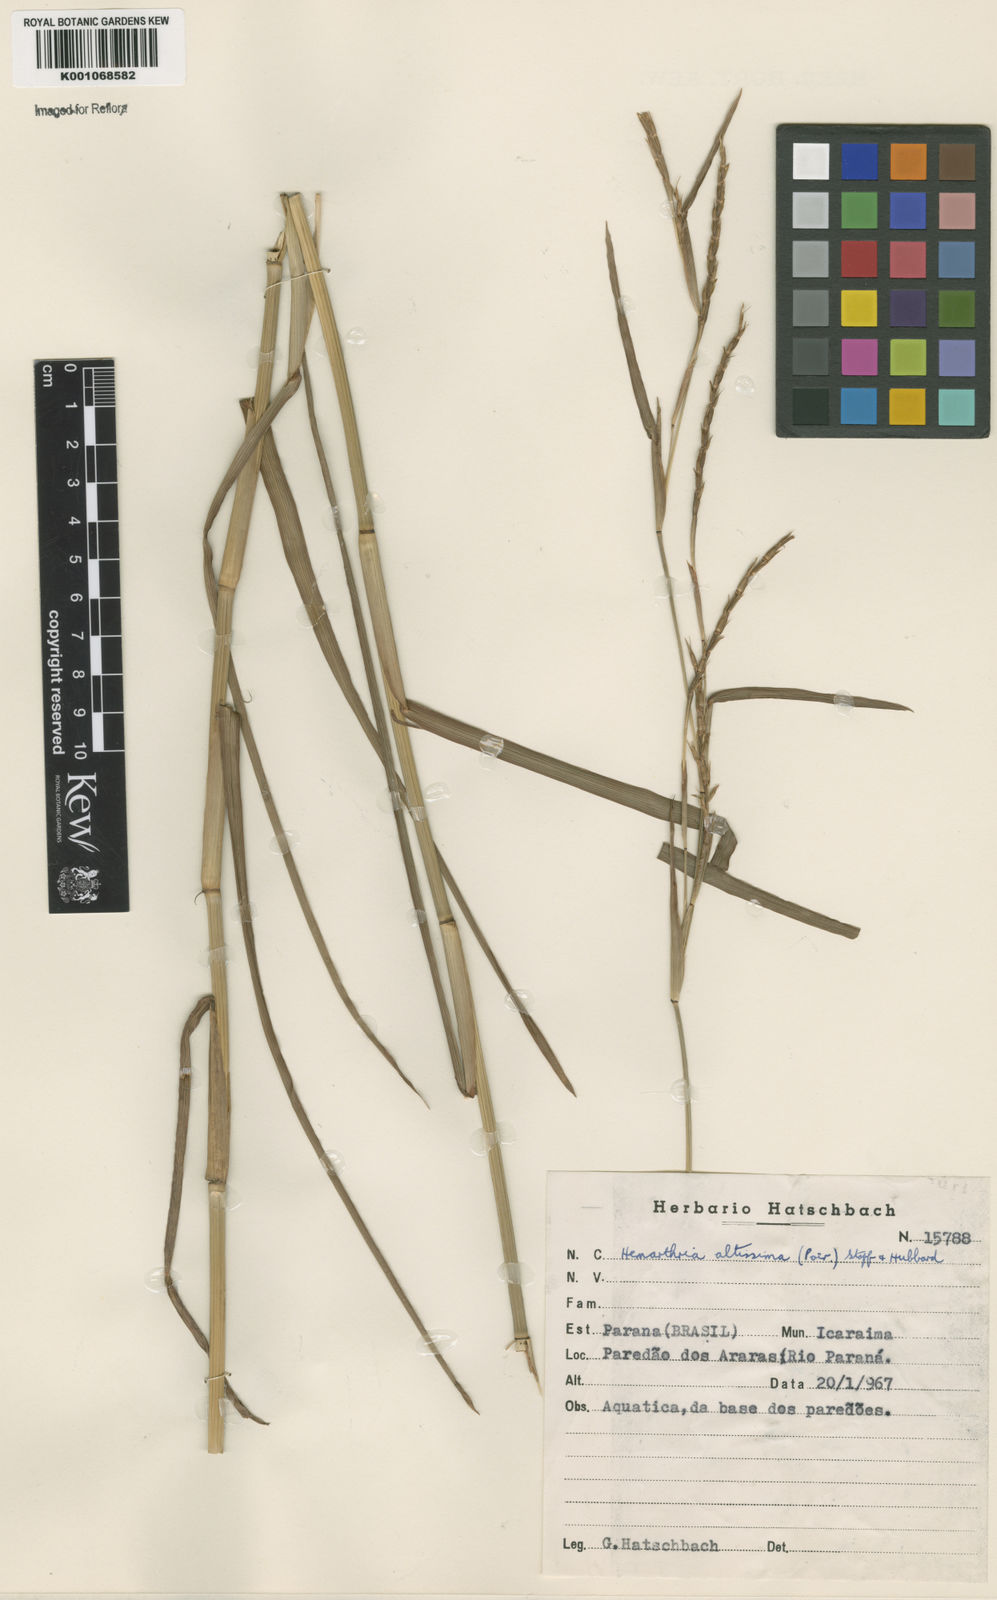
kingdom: Plantae
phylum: Tracheophyta
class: Liliopsida
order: Poales
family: Poaceae
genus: Hemarthria
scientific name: Hemarthria altissima
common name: African jointgrass
